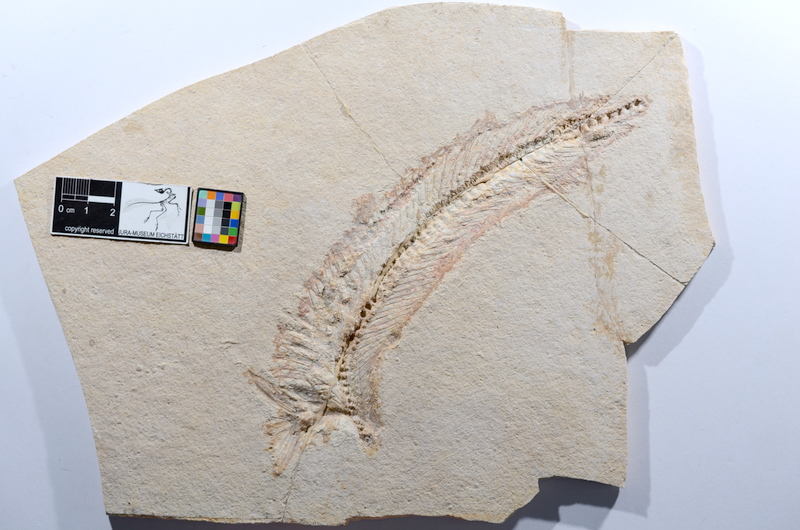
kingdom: Animalia
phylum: Chordata
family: Allothrissopidae
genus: Allothrissops
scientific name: Allothrissops
